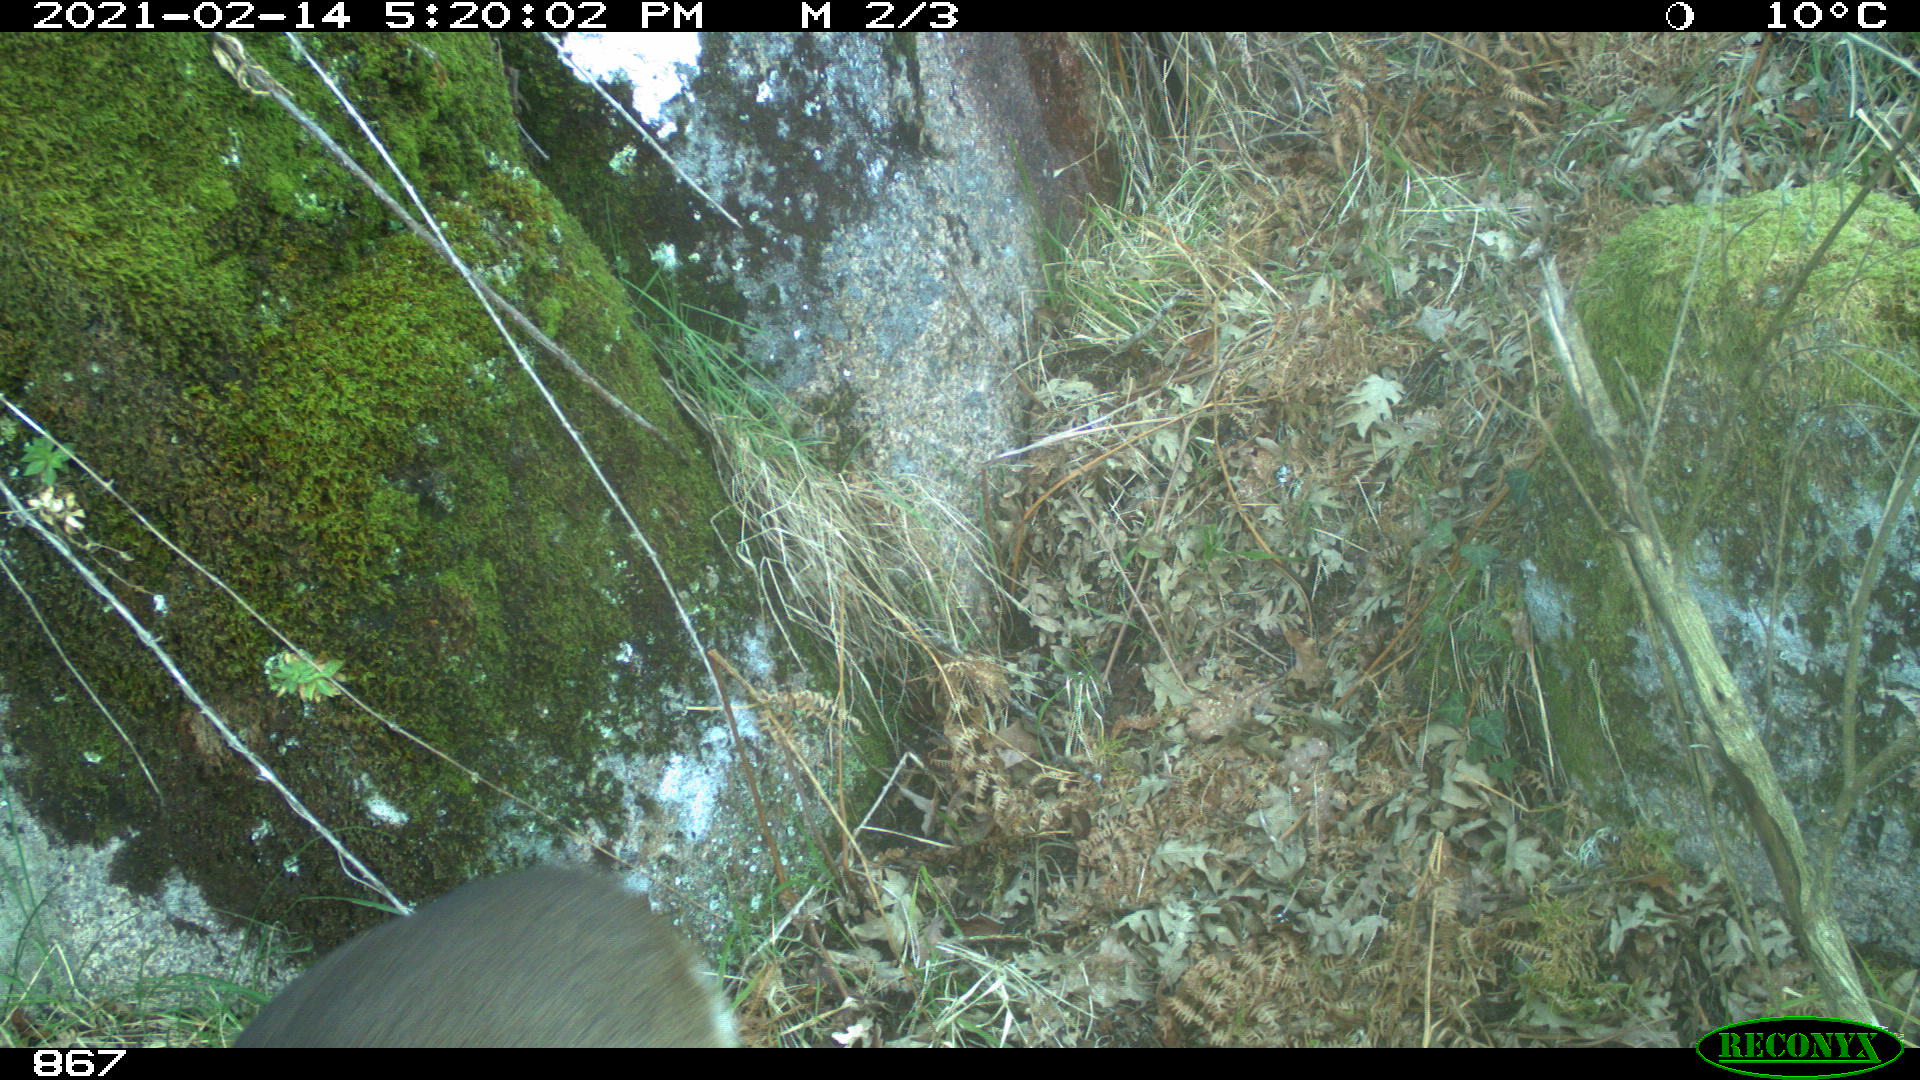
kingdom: Animalia
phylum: Chordata
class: Mammalia
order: Artiodactyla
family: Cervidae
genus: Capreolus
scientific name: Capreolus capreolus
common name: Western roe deer
